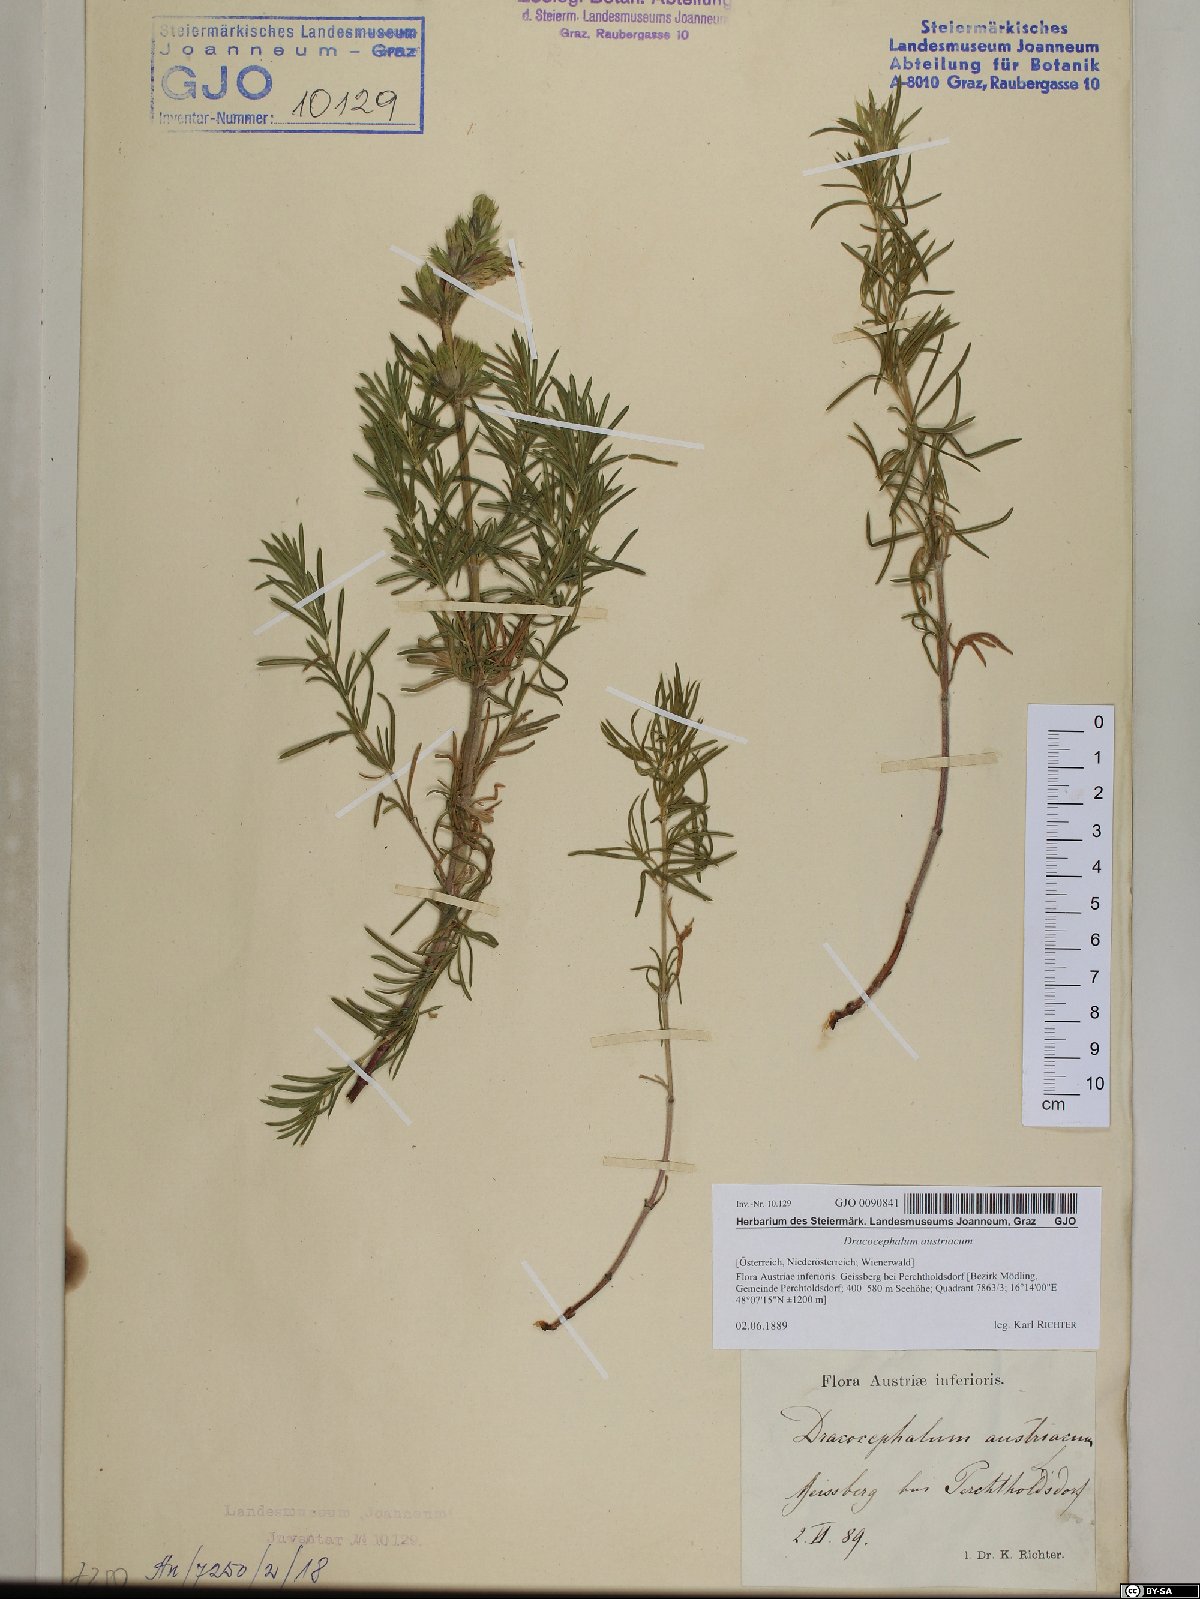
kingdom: Plantae
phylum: Tracheophyta
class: Magnoliopsida
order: Lamiales
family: Lamiaceae
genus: Dracocephalum
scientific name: Dracocephalum austriacum
